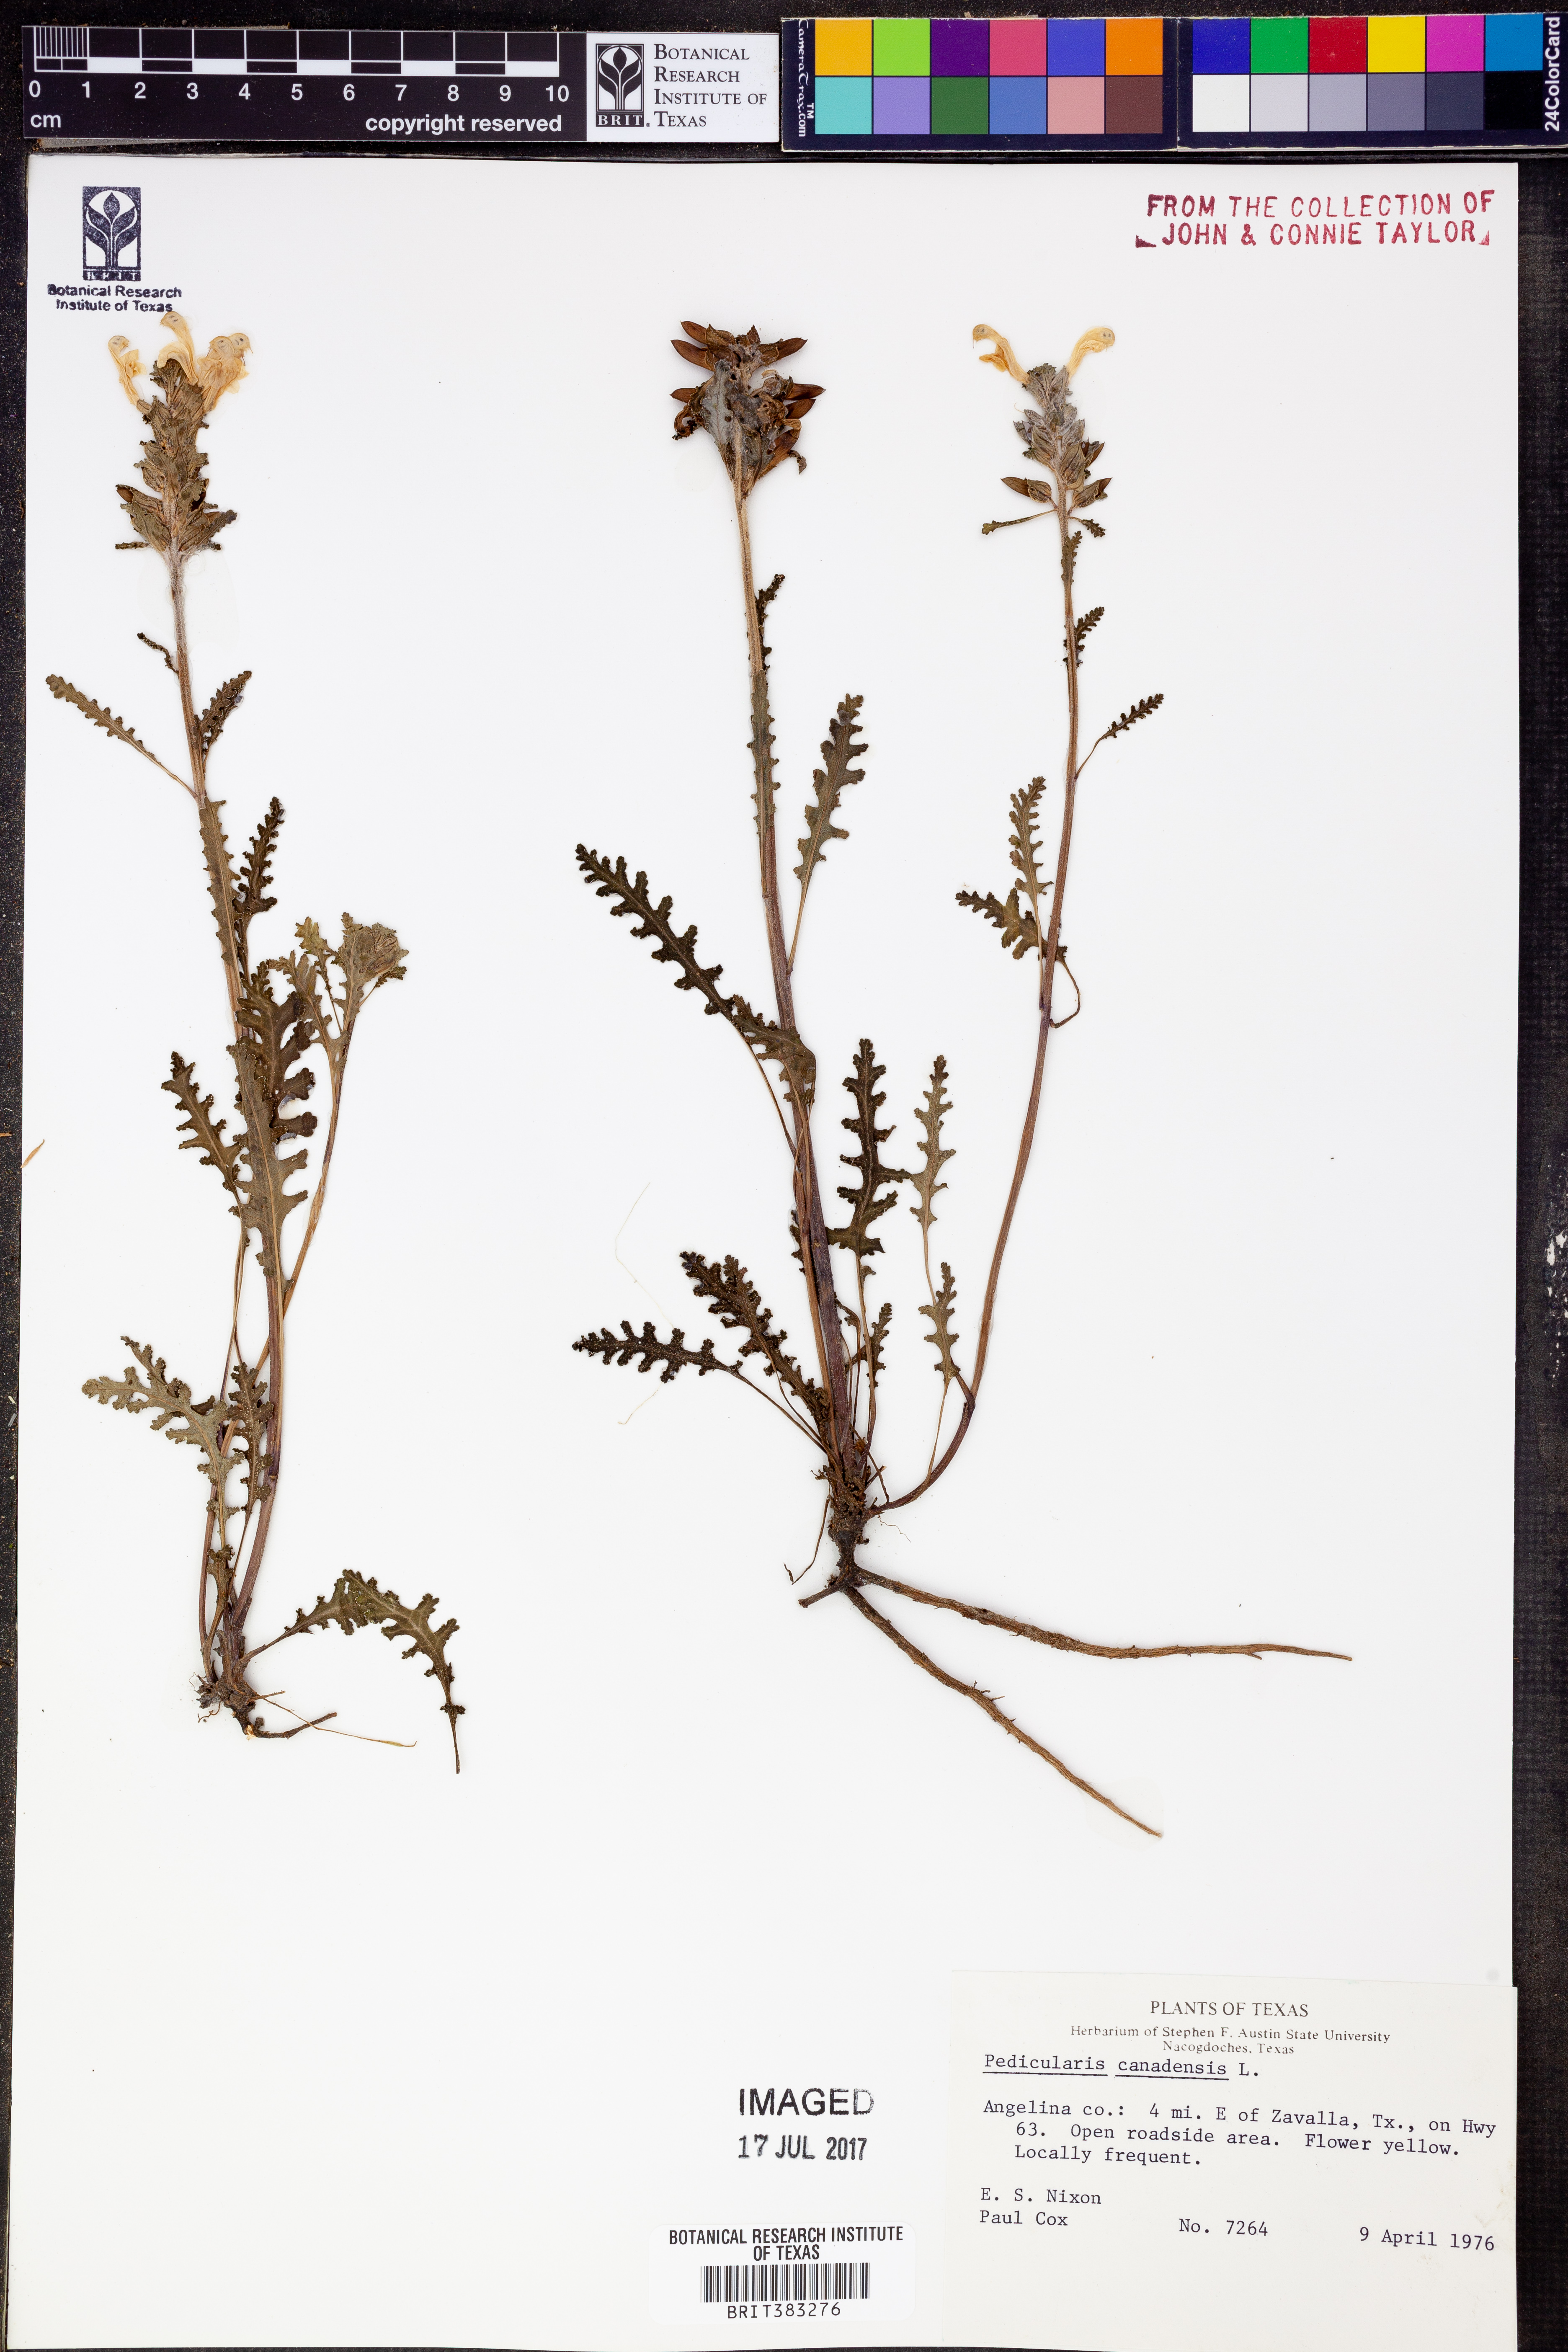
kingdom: Plantae
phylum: Tracheophyta
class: Magnoliopsida
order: Lamiales
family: Orobanchaceae
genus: Pedicularis
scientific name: Pedicularis canadensis
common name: Early lousewort
